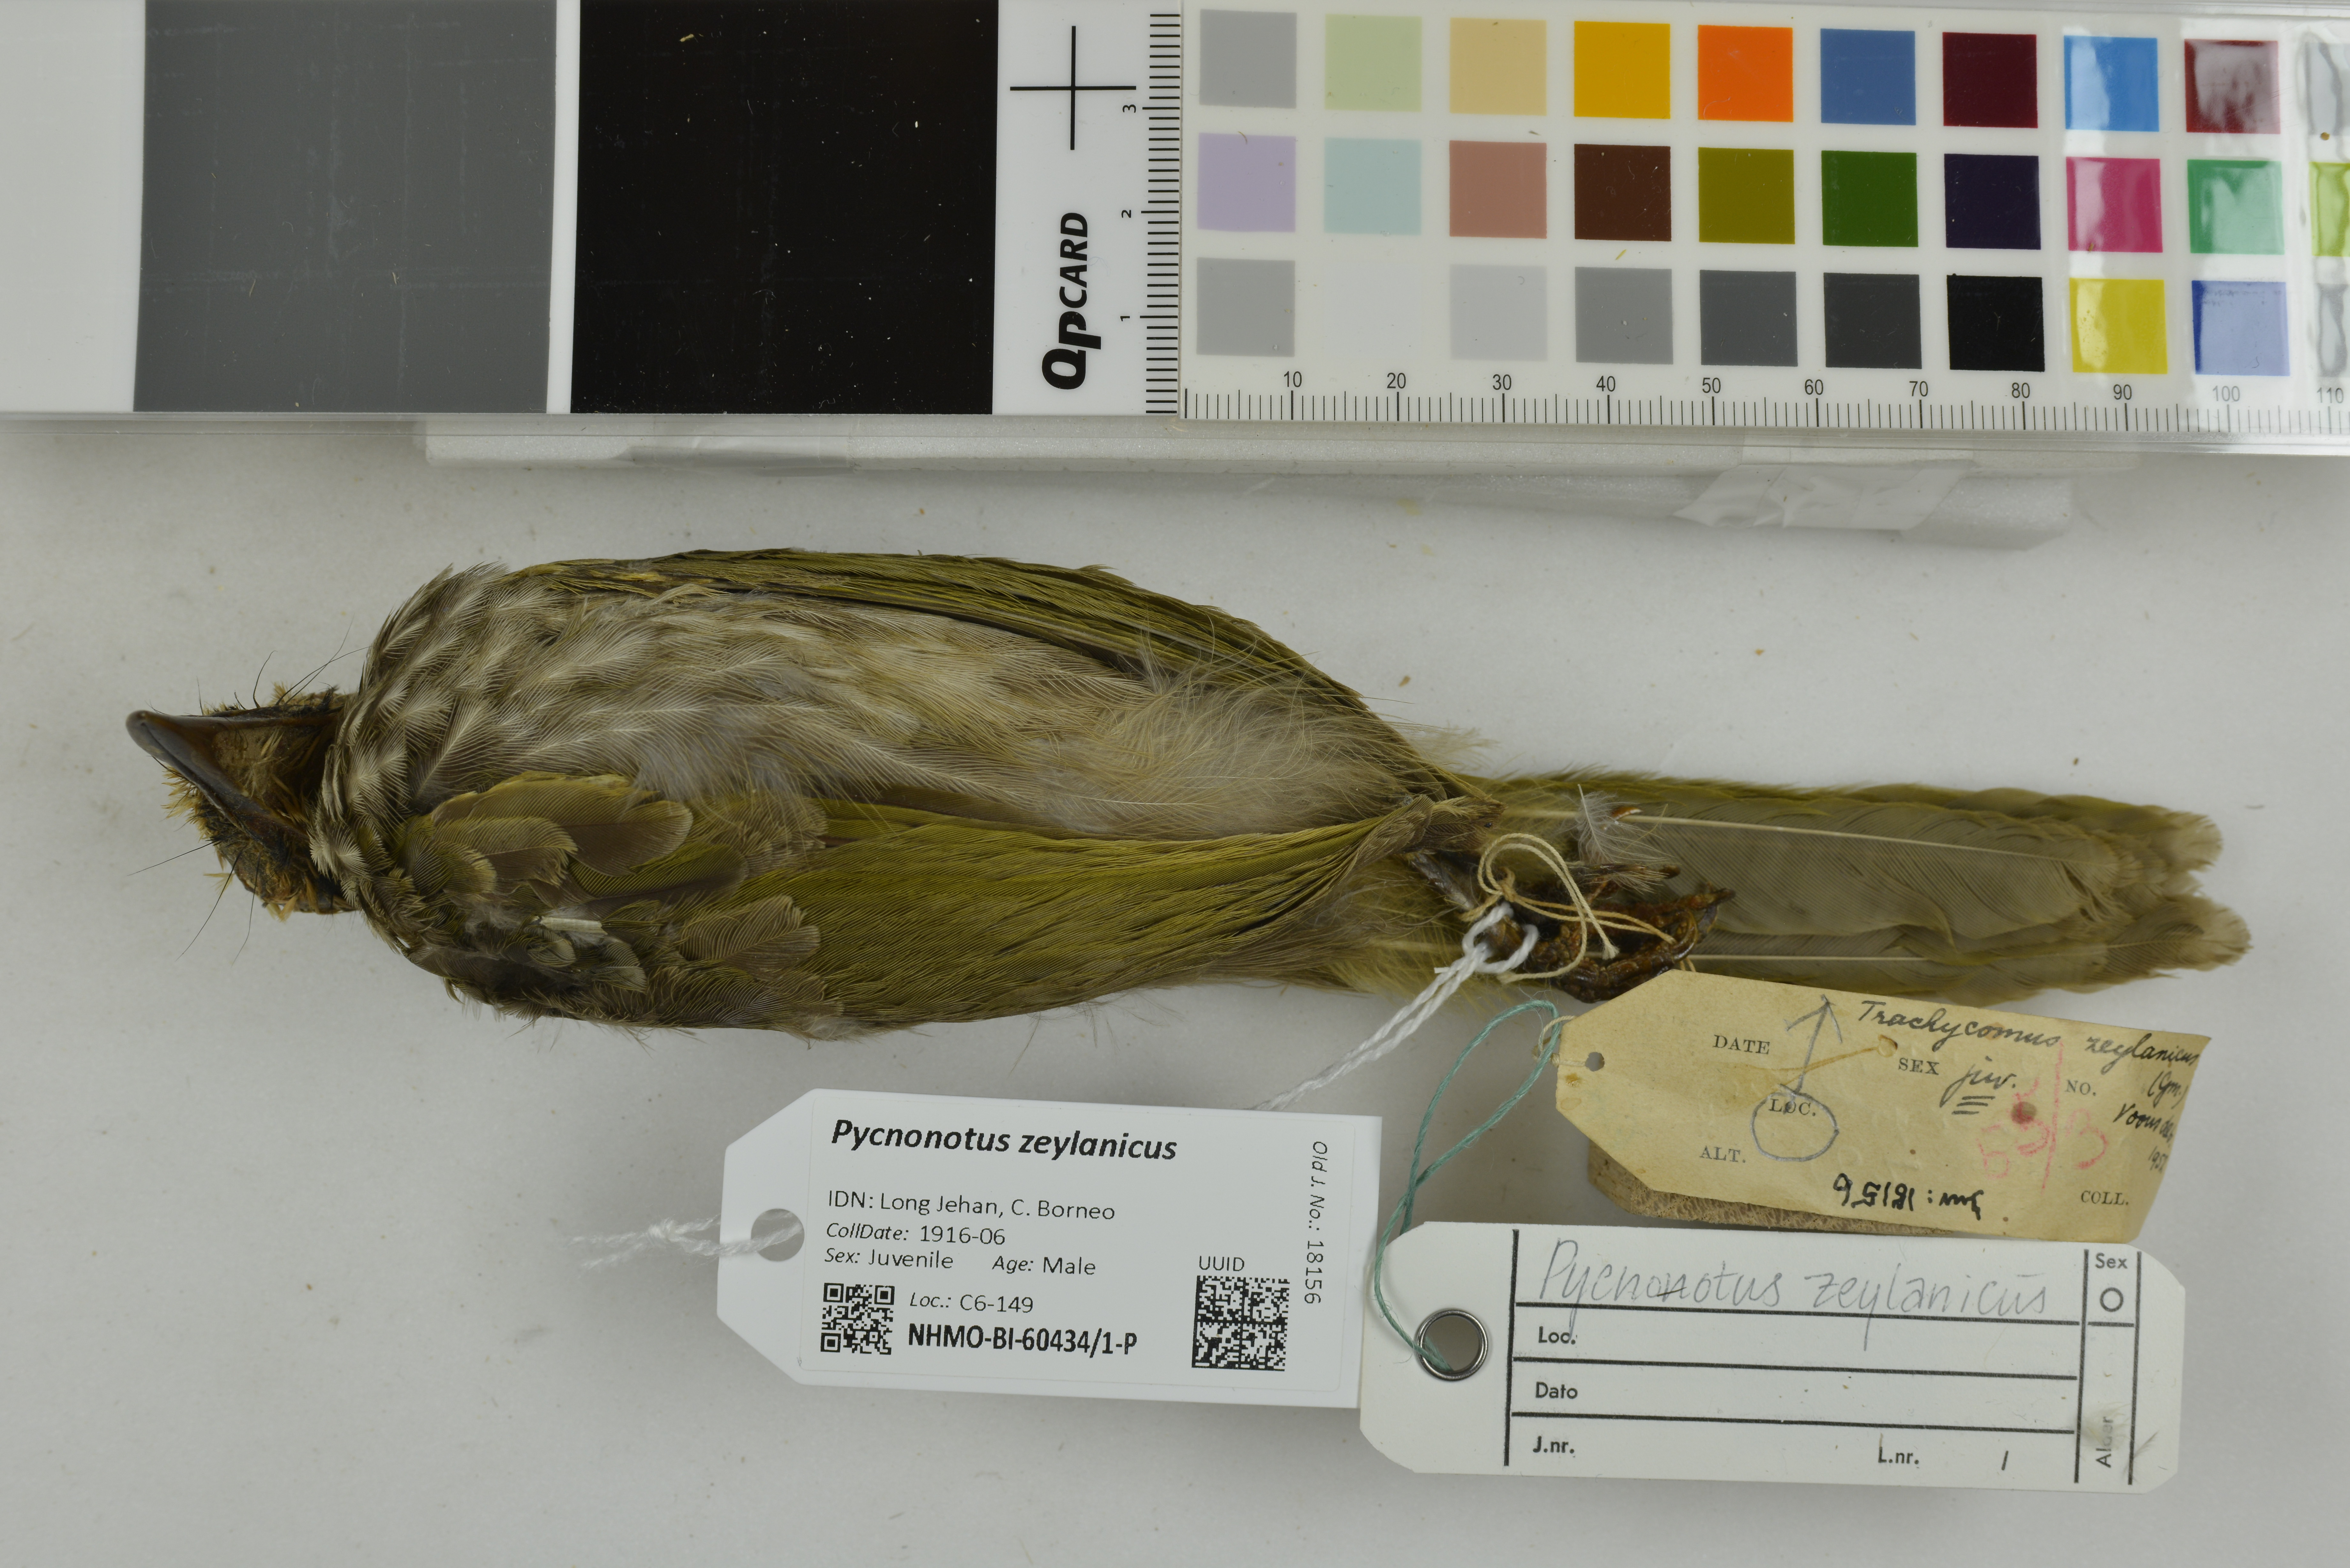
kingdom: Animalia
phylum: Chordata
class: Aves
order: Passeriformes
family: Pycnonotidae
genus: Pycnonotus
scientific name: Pycnonotus zeylanicus
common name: Straw-headed bulbul
